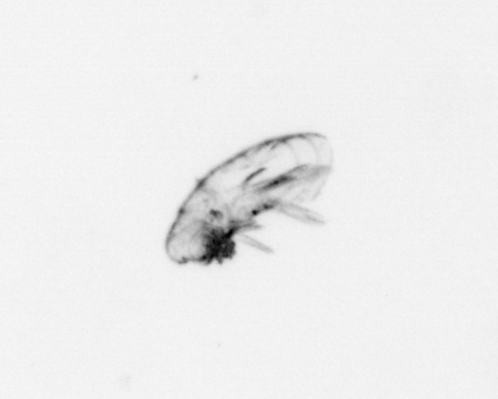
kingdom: Animalia
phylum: Arthropoda
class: Maxillopoda
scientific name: Maxillopoda
